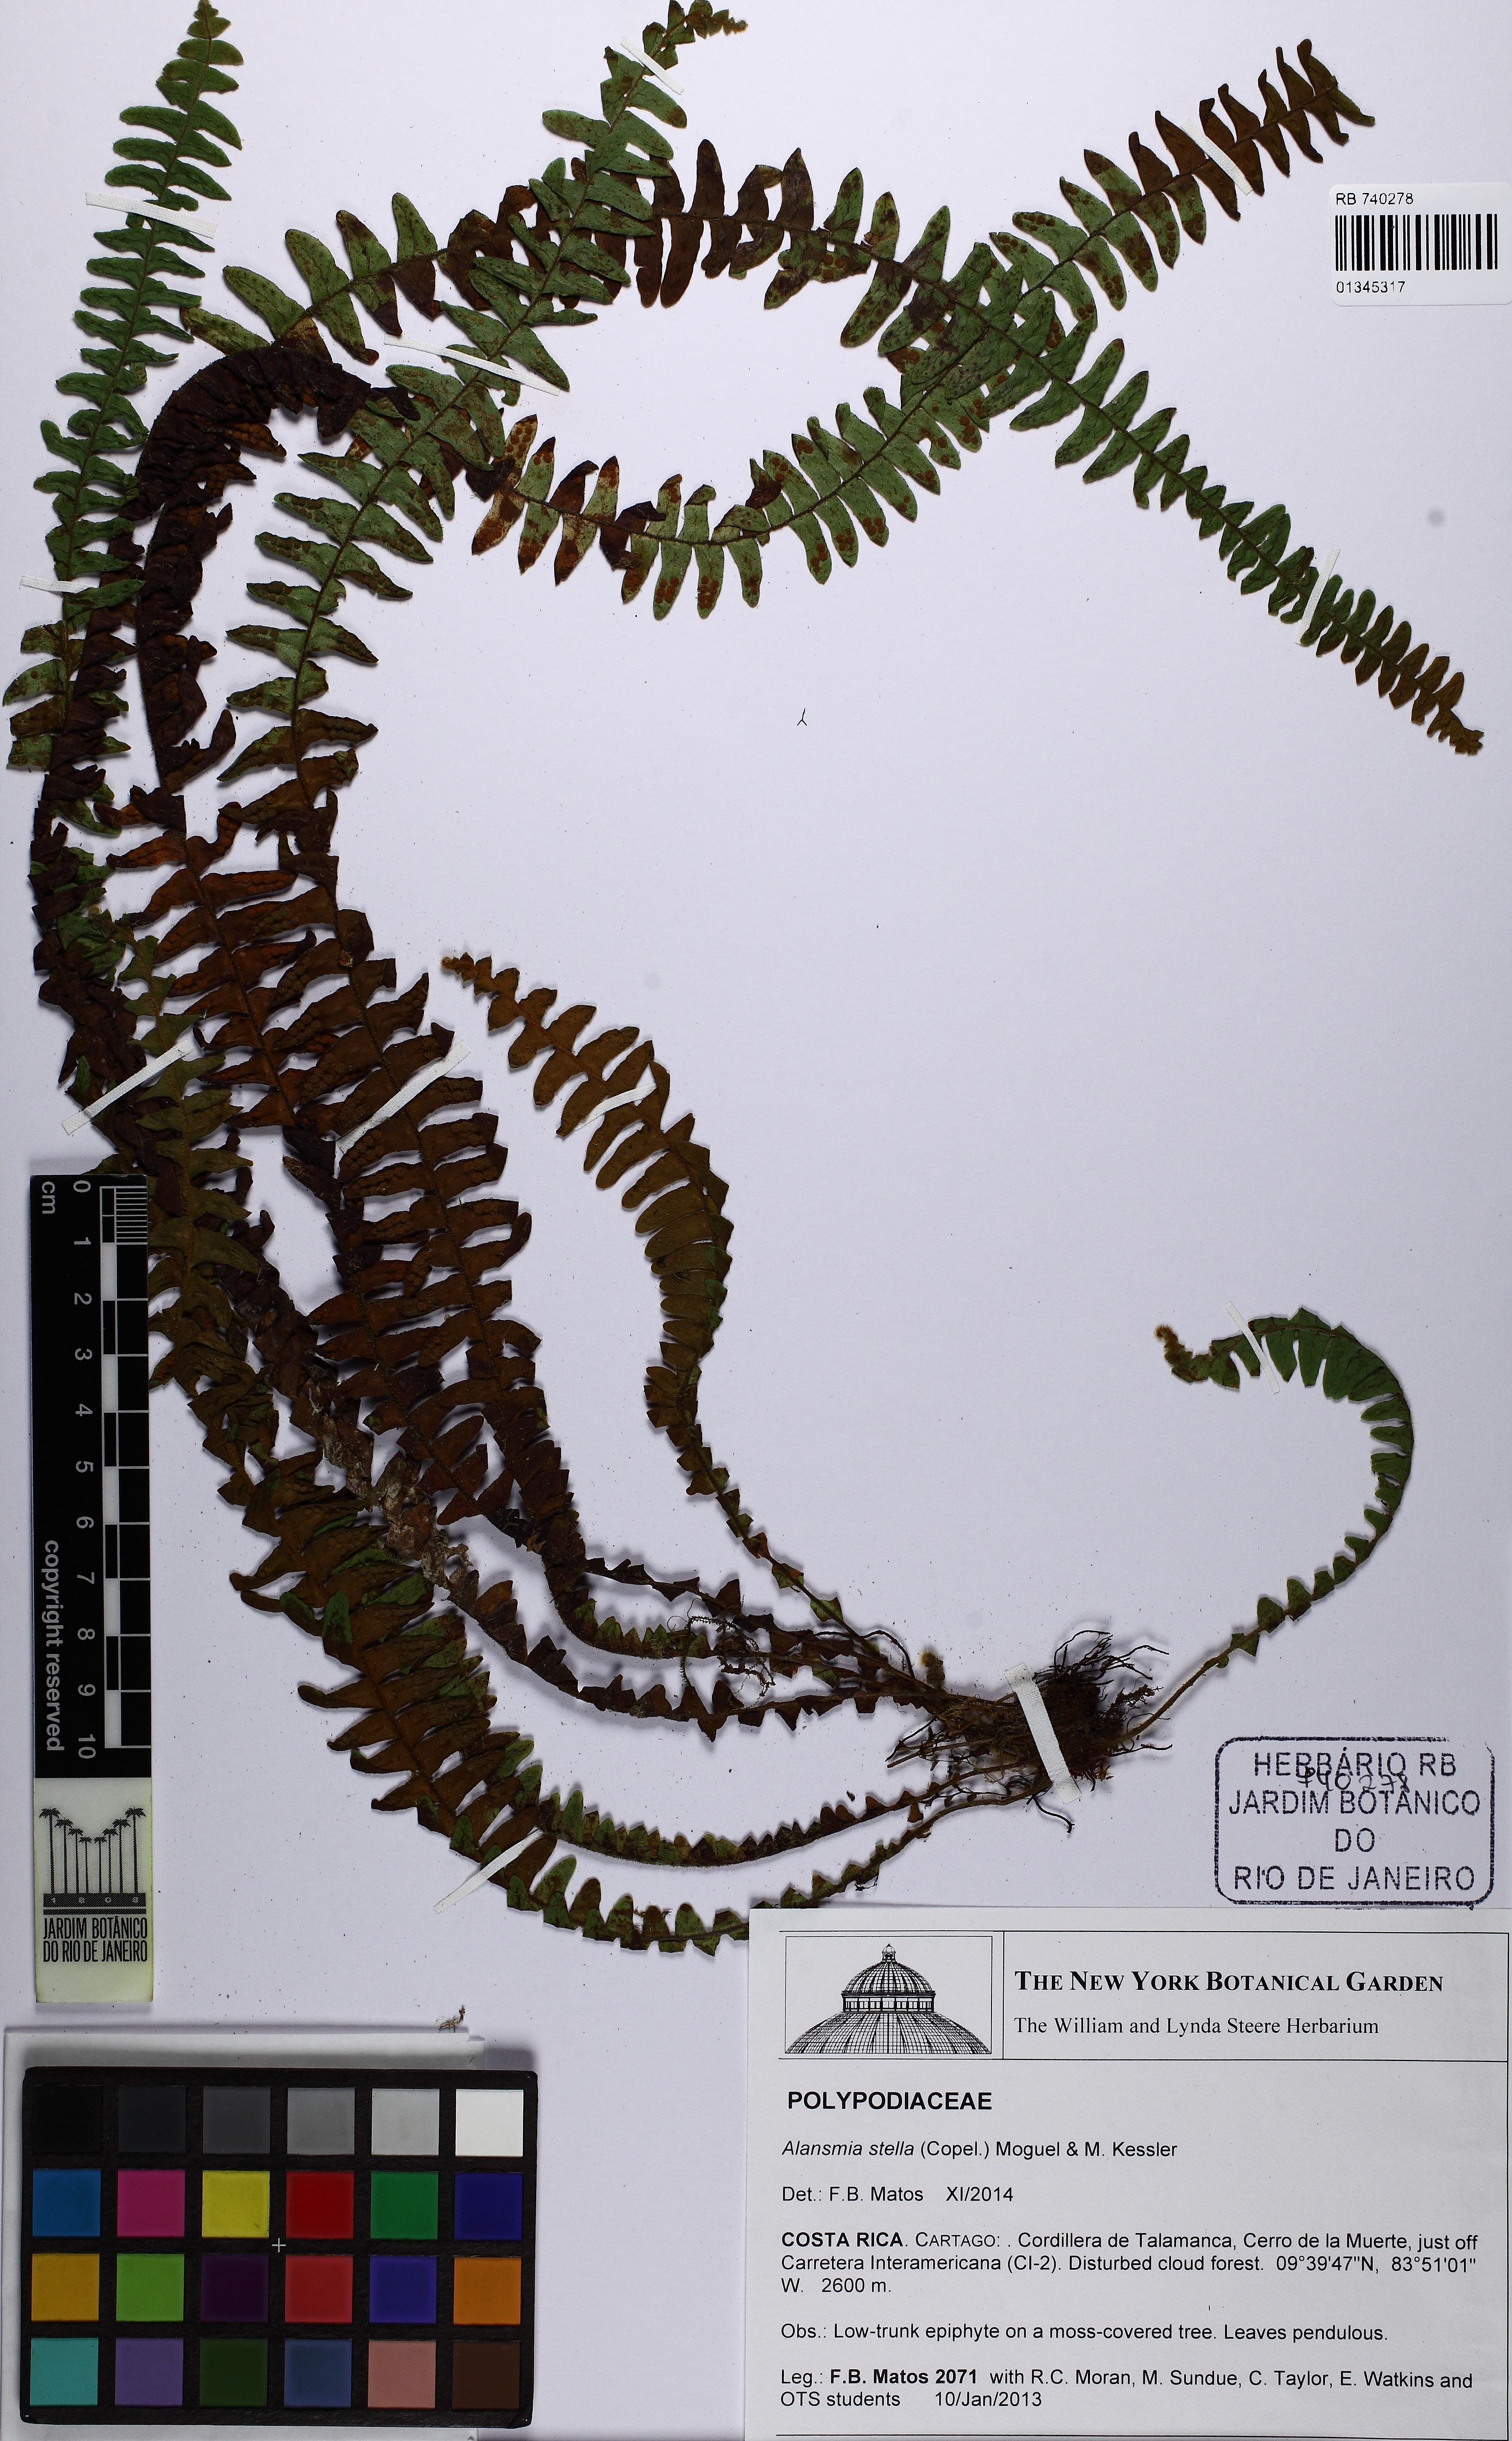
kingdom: Plantae
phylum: Tracheophyta
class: Polypodiopsida
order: Polypodiales
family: Polypodiaceae
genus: Alansmia
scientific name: Alansmia stella
